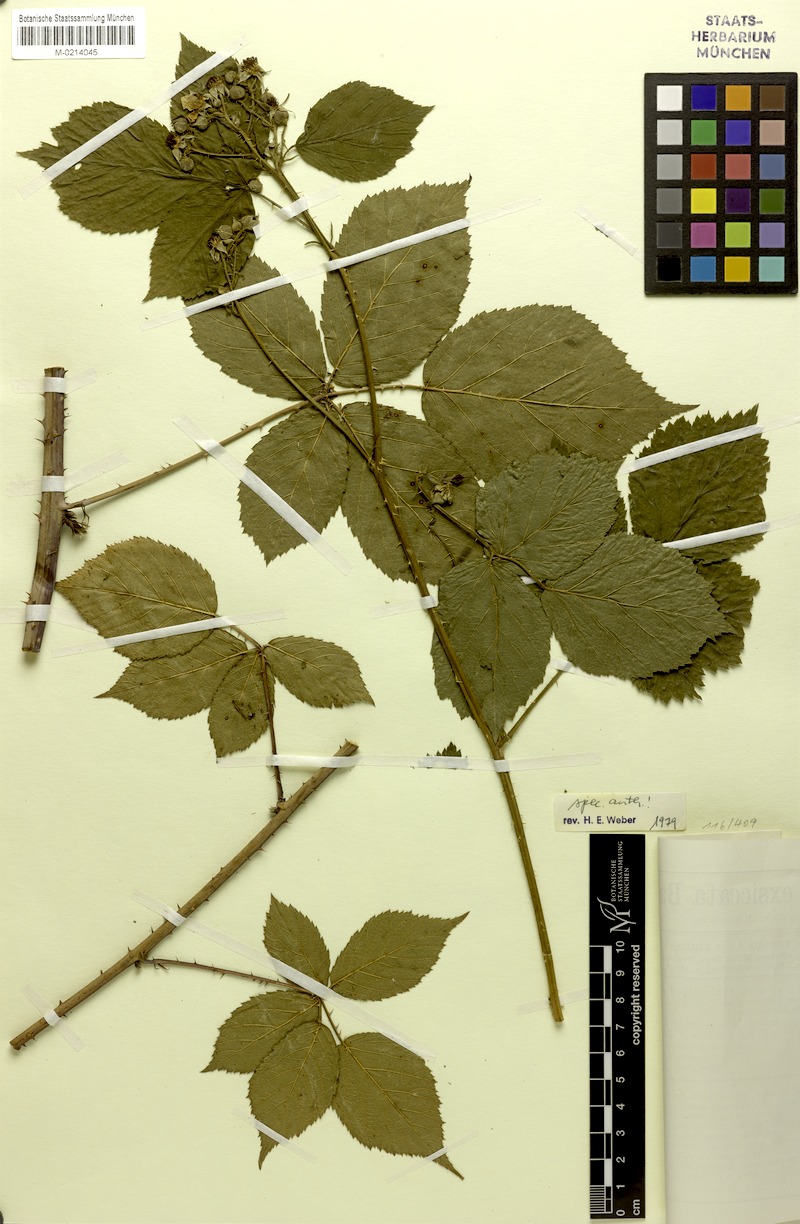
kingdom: Plantae
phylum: Tracheophyta
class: Magnoliopsida
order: Rosales
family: Rosaceae
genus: Rubus
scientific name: Rubus werdensis
